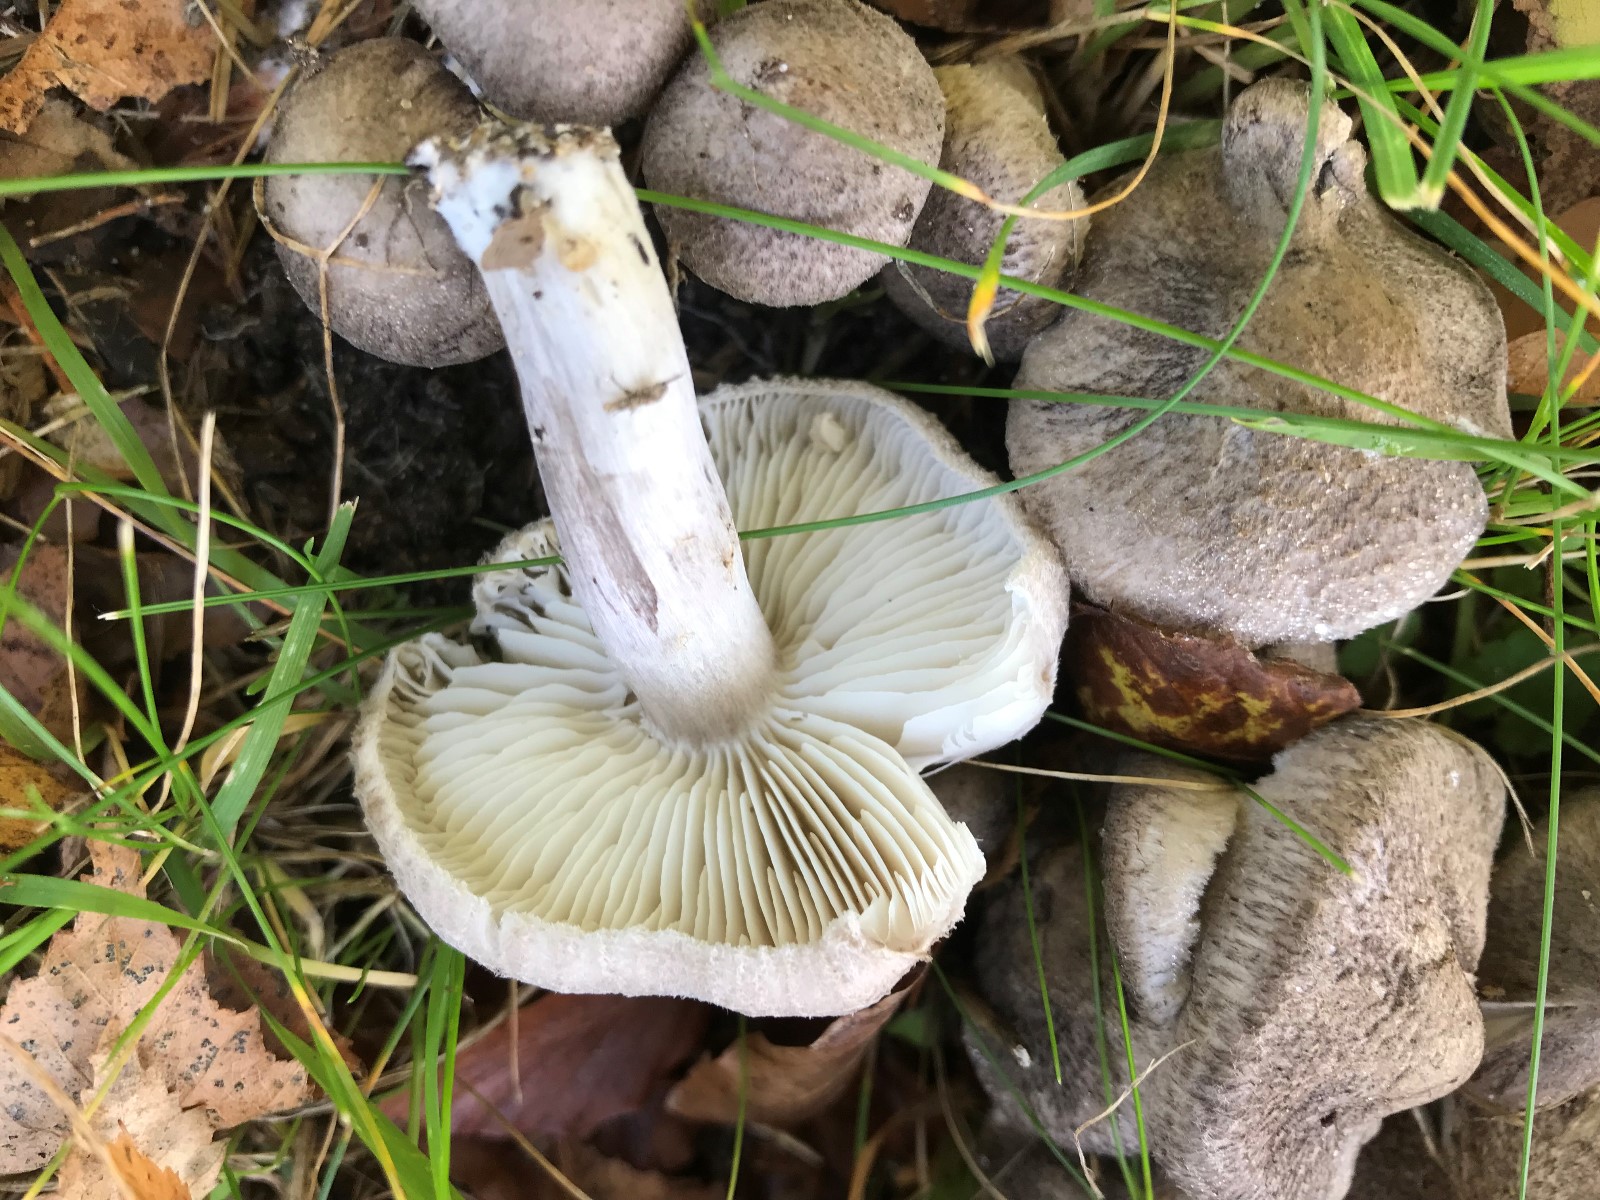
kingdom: Fungi
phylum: Basidiomycota
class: Agaricomycetes
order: Agaricales
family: Tricholomataceae
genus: Tricholoma
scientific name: Tricholoma scalpturatum
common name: gulplettet ridderhat
